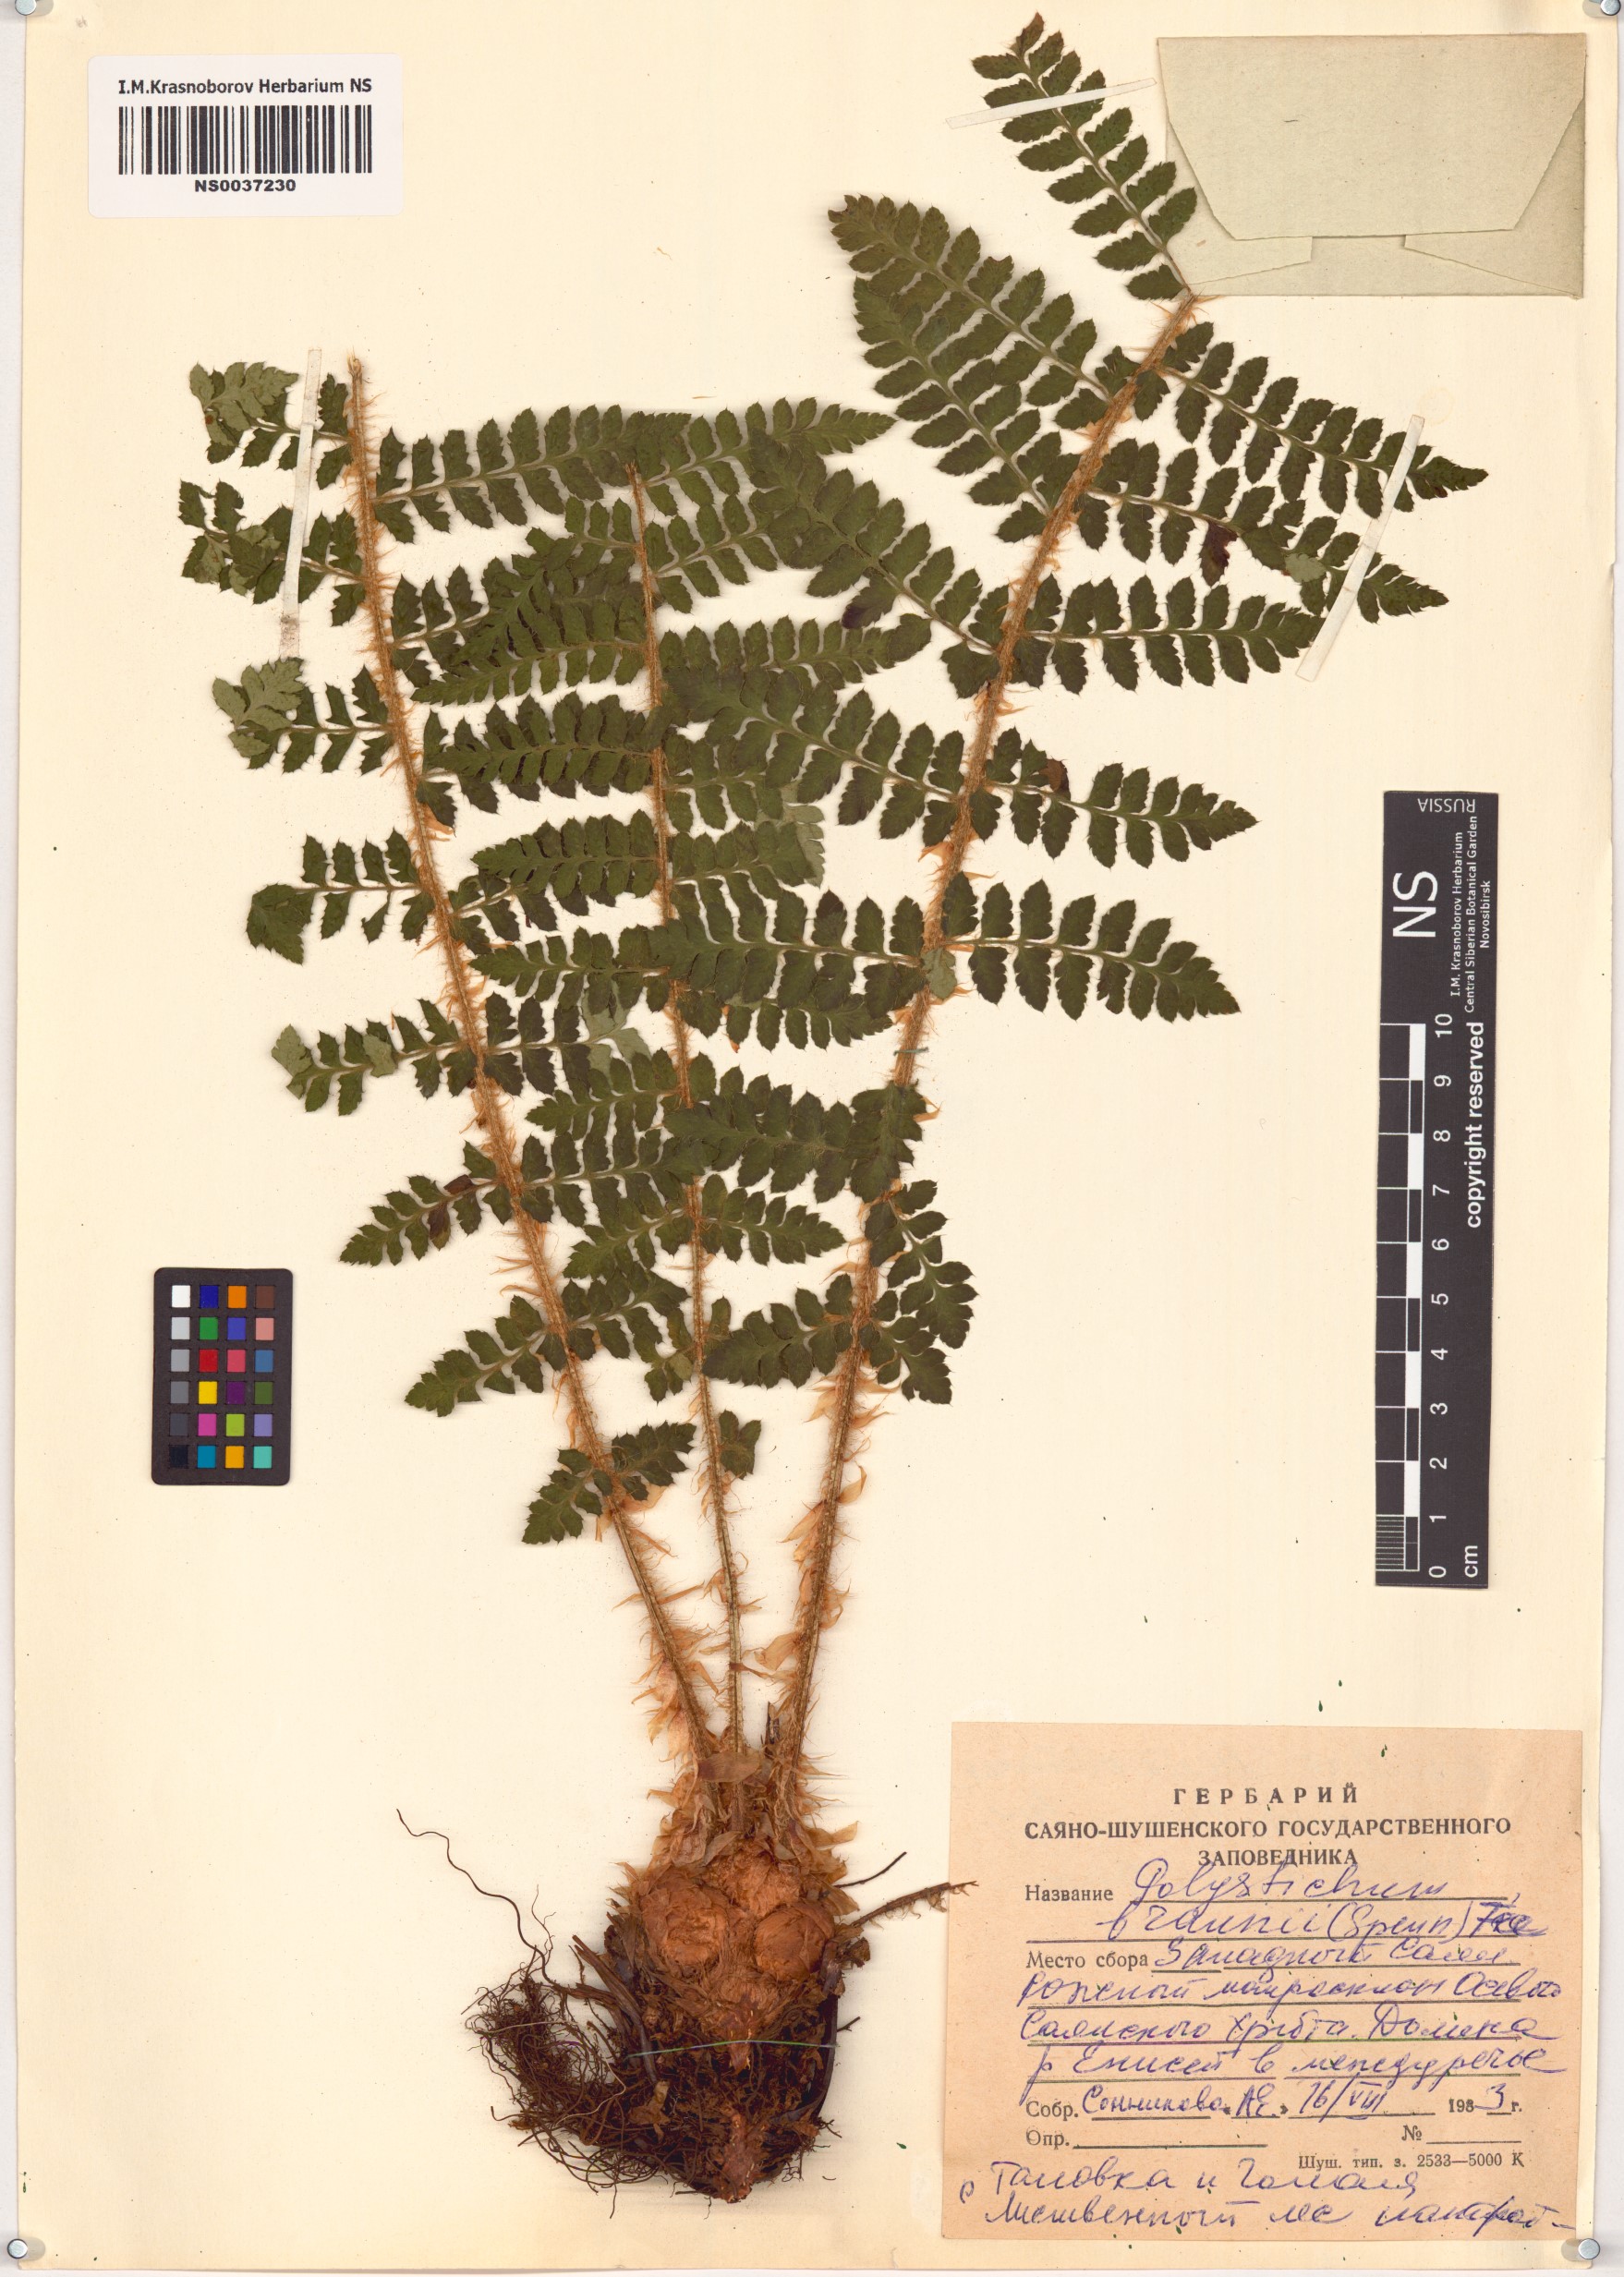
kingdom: Plantae
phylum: Tracheophyta
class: Polypodiopsida
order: Polypodiales
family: Dryopteridaceae
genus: Polystichum
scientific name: Polystichum braunii
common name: Braun's holly fern
